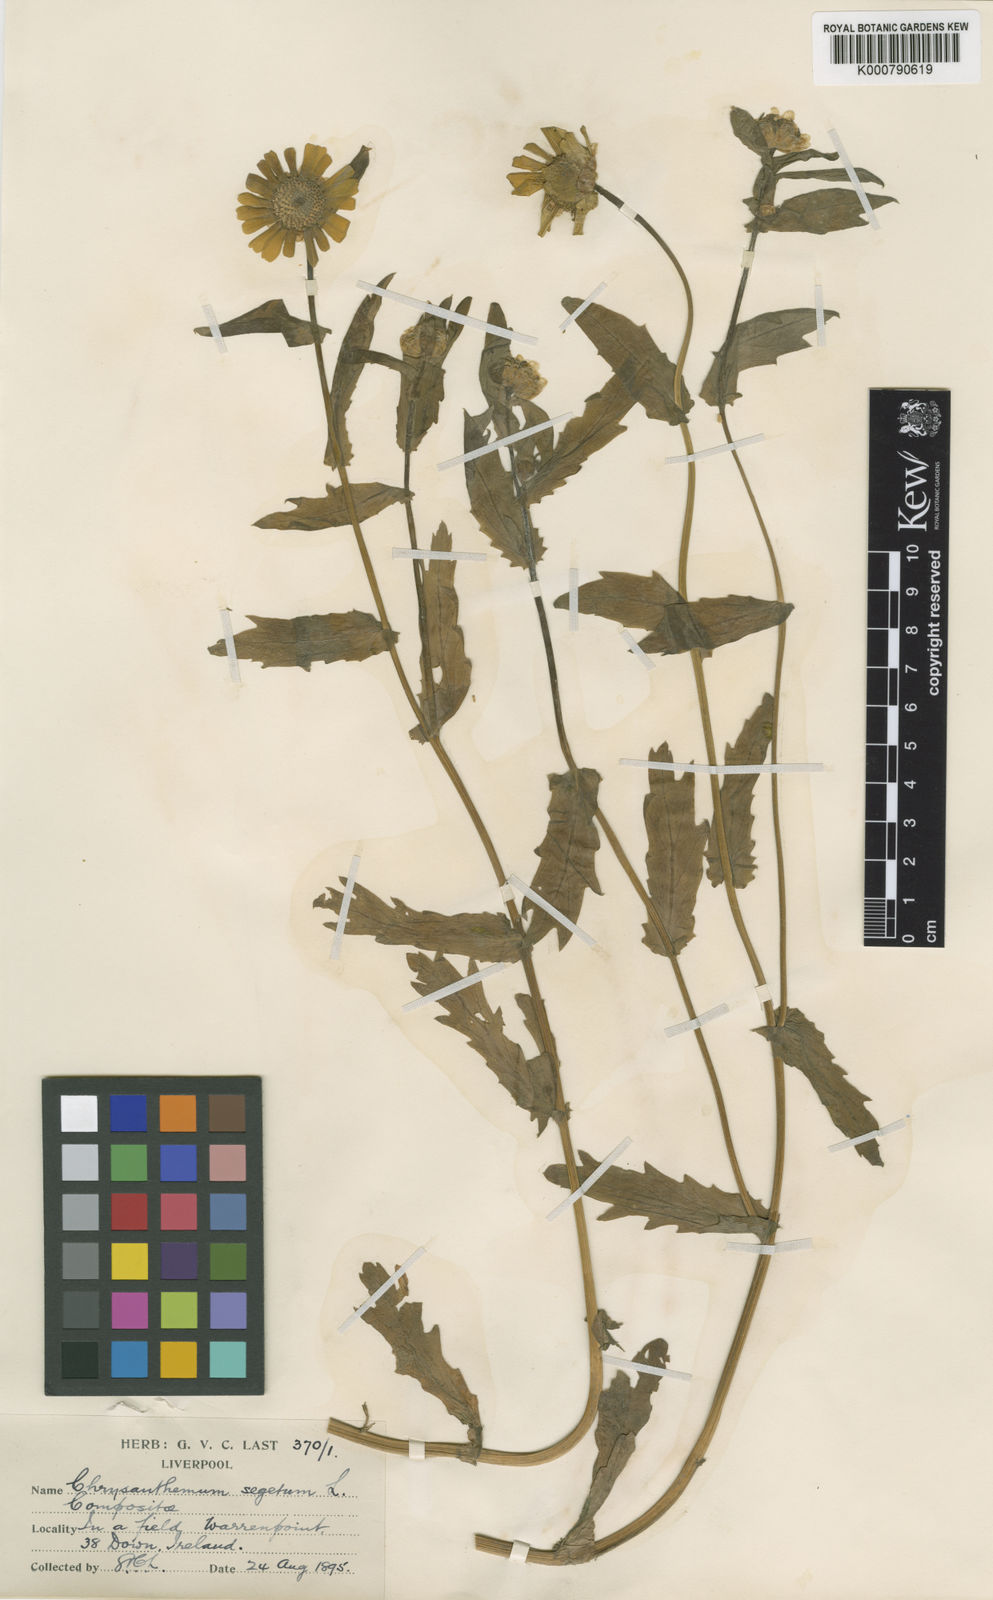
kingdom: Plantae
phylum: Tracheophyta
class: Magnoliopsida
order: Asterales
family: Asteraceae
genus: Glebionis
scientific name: Glebionis
